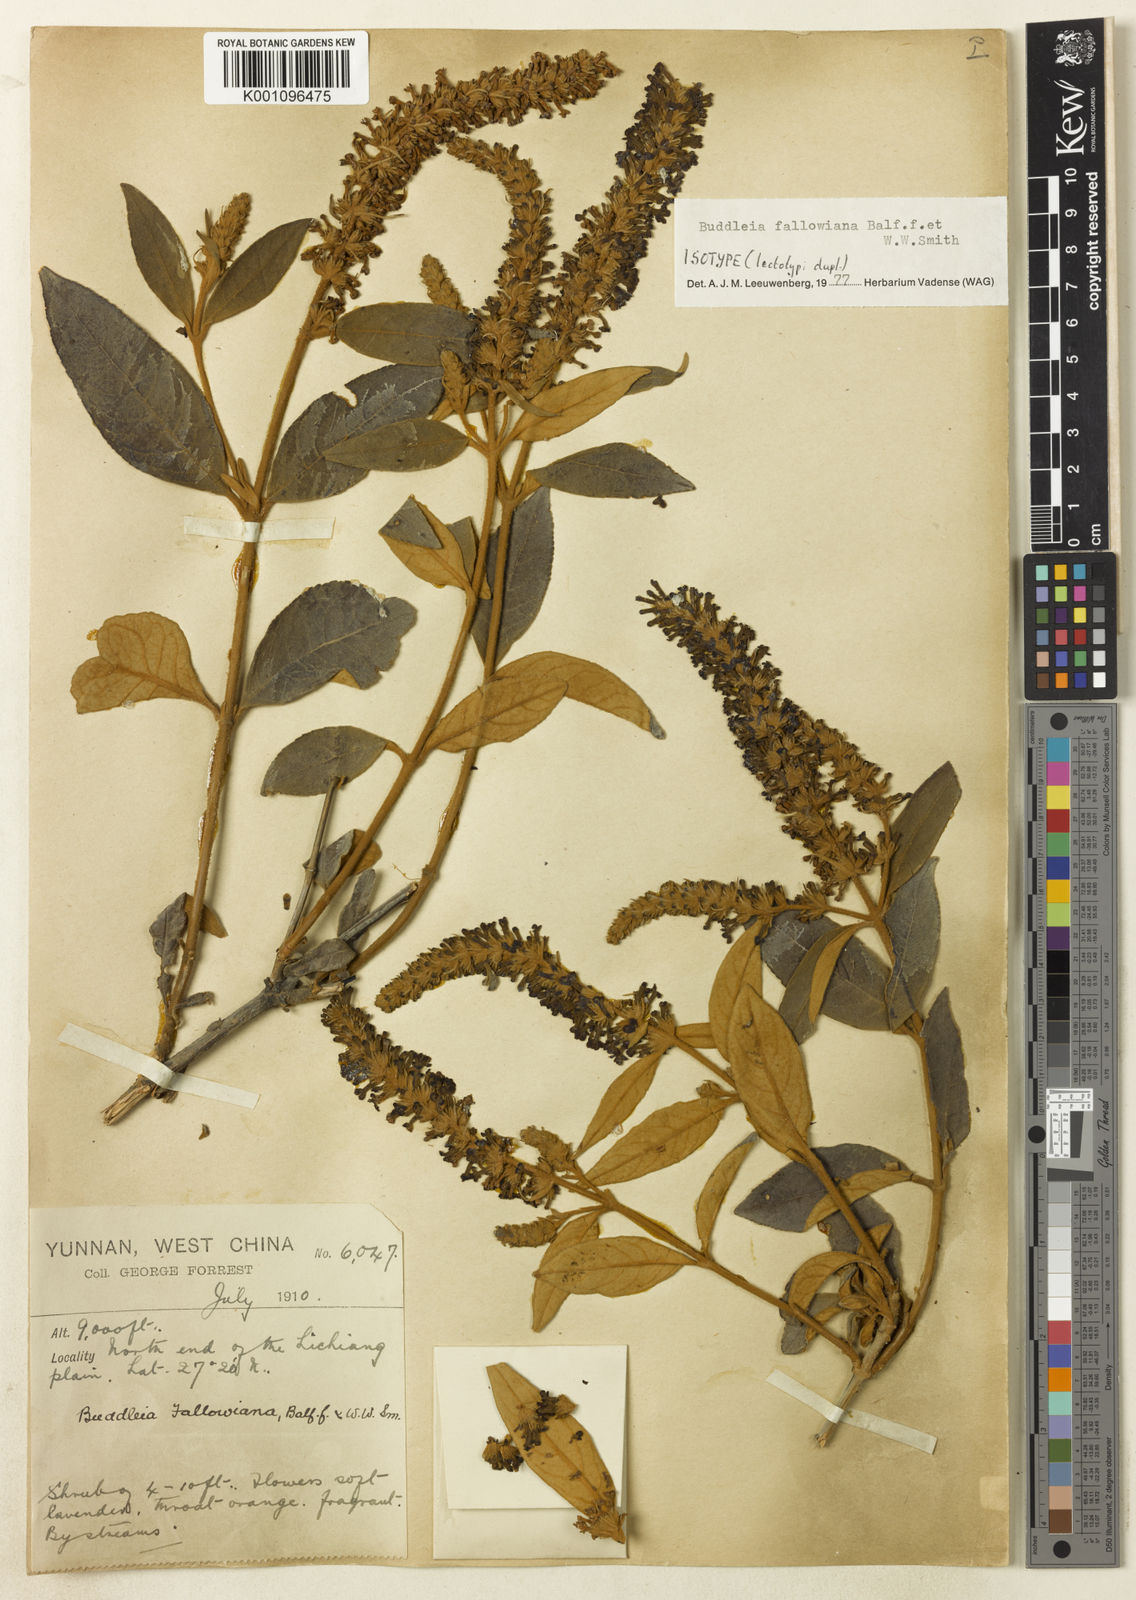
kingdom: Plantae
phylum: Tracheophyta
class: Magnoliopsida
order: Lamiales
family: Scrophulariaceae
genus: Buddleja
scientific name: Buddleja fallowiana
